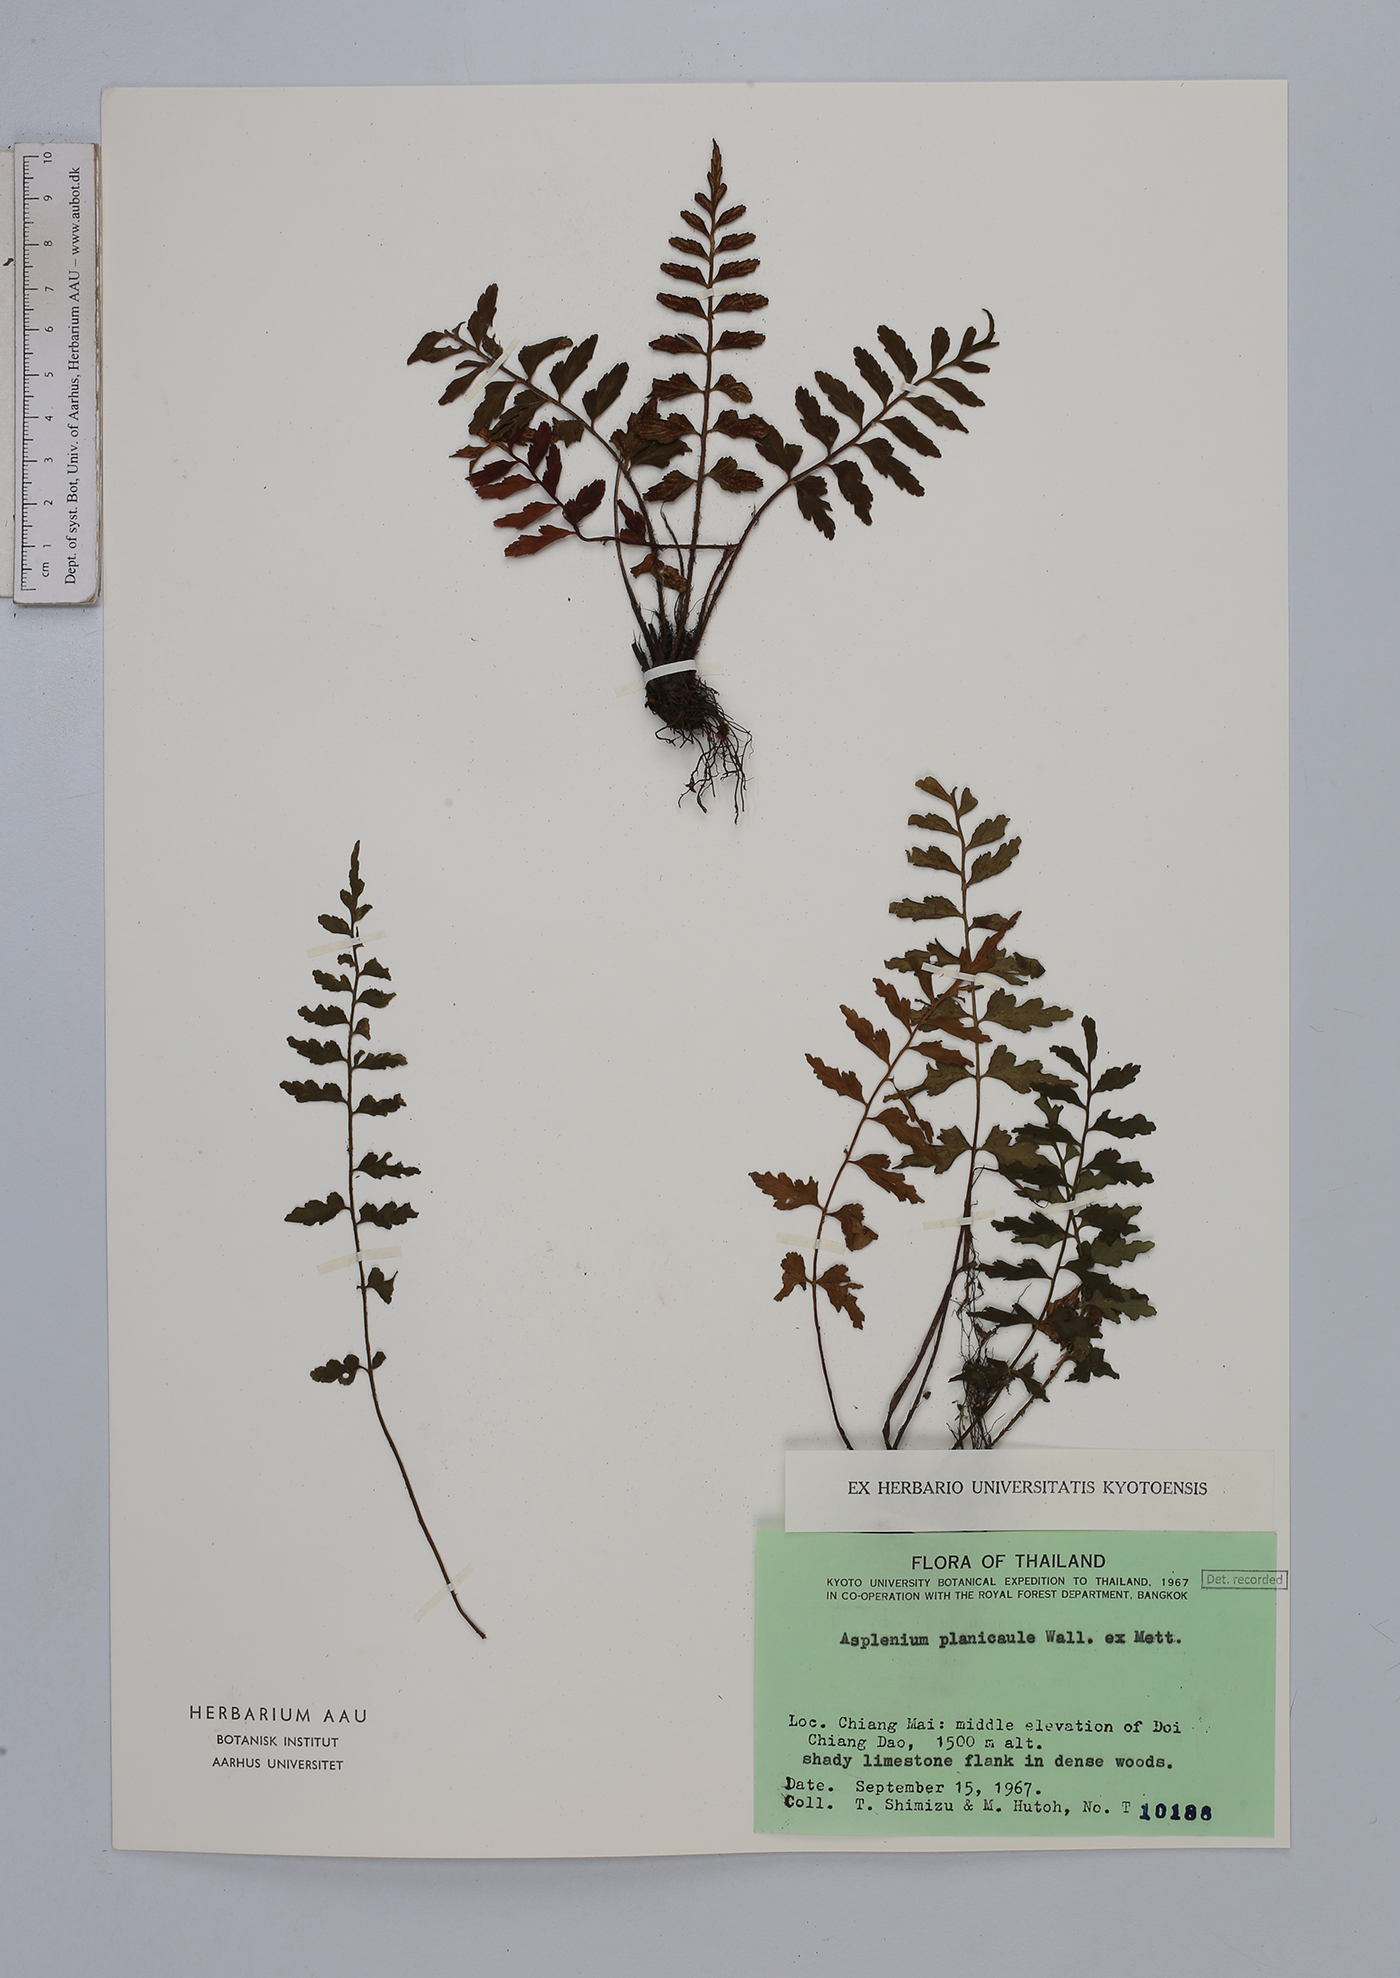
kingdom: Plantae
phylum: Tracheophyta
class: Polypodiopsida
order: Polypodiales
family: Aspleniaceae
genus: Asplenium
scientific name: Asplenium lividum
